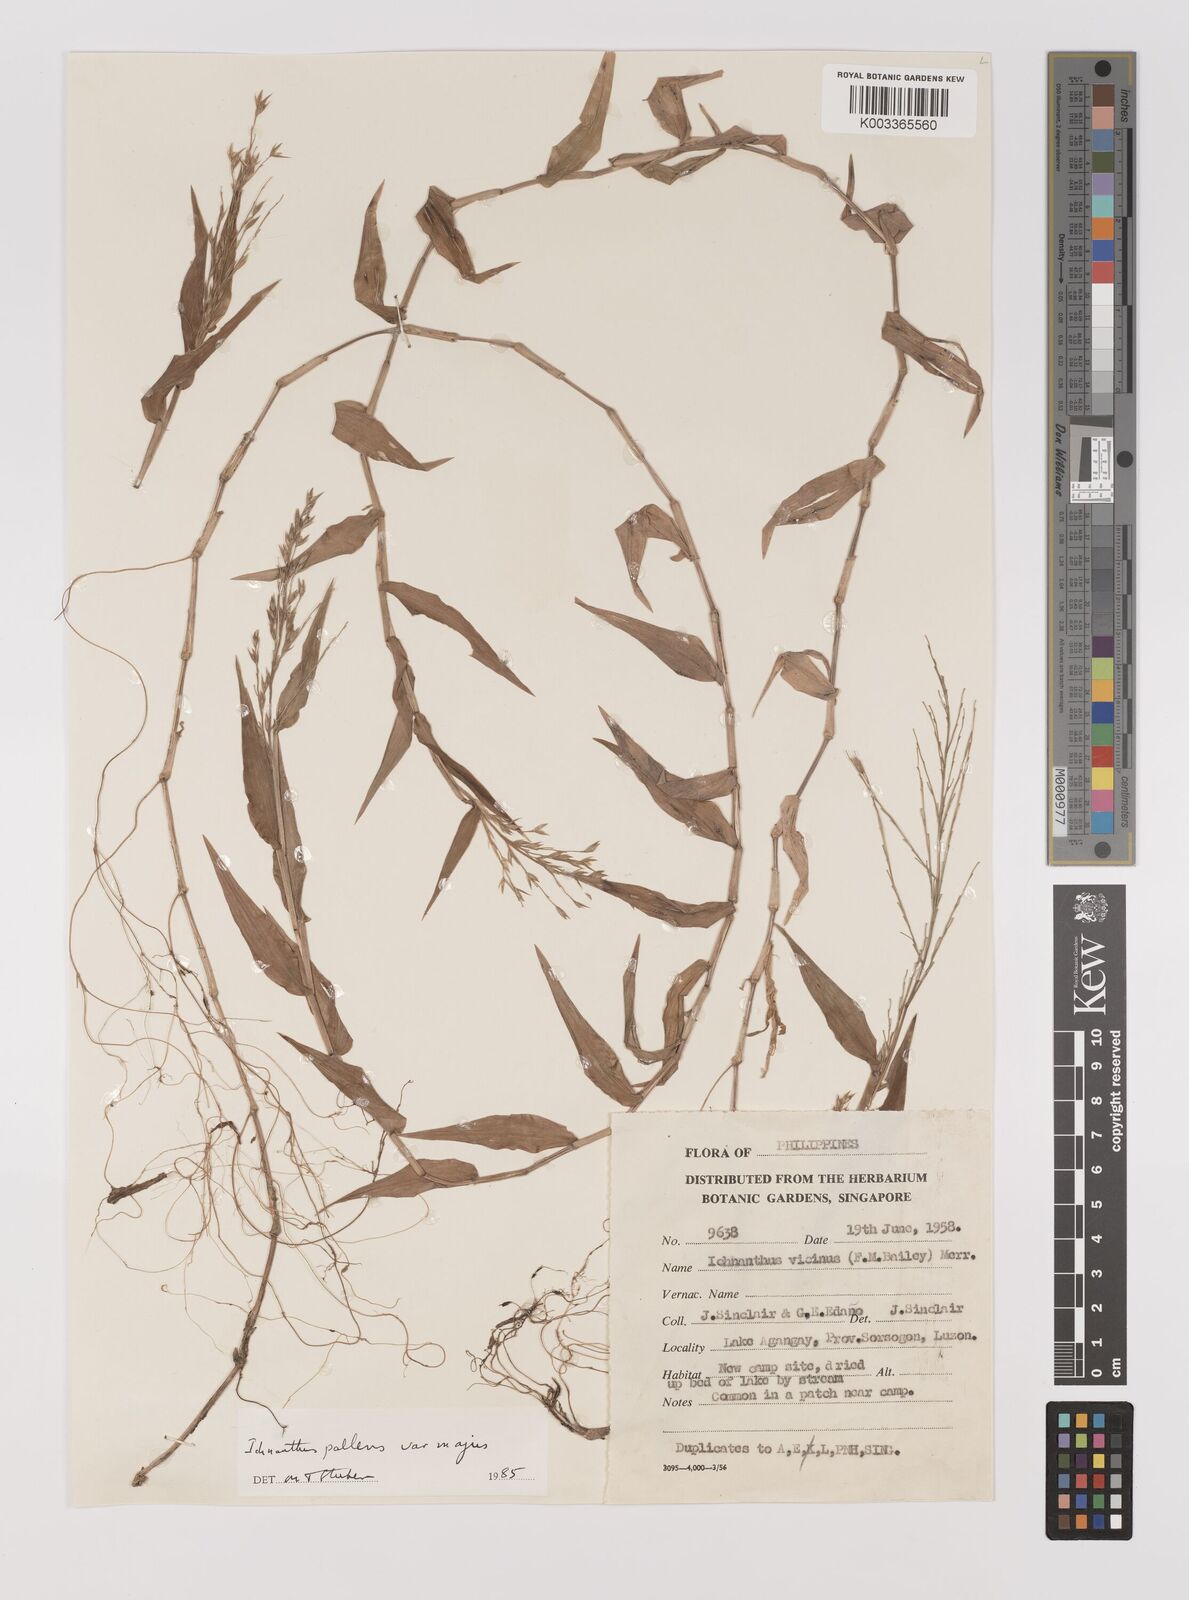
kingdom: Plantae
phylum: Tracheophyta
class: Liliopsida
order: Poales
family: Poaceae
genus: Ichnanthus
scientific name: Ichnanthus pallens
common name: Water grass
